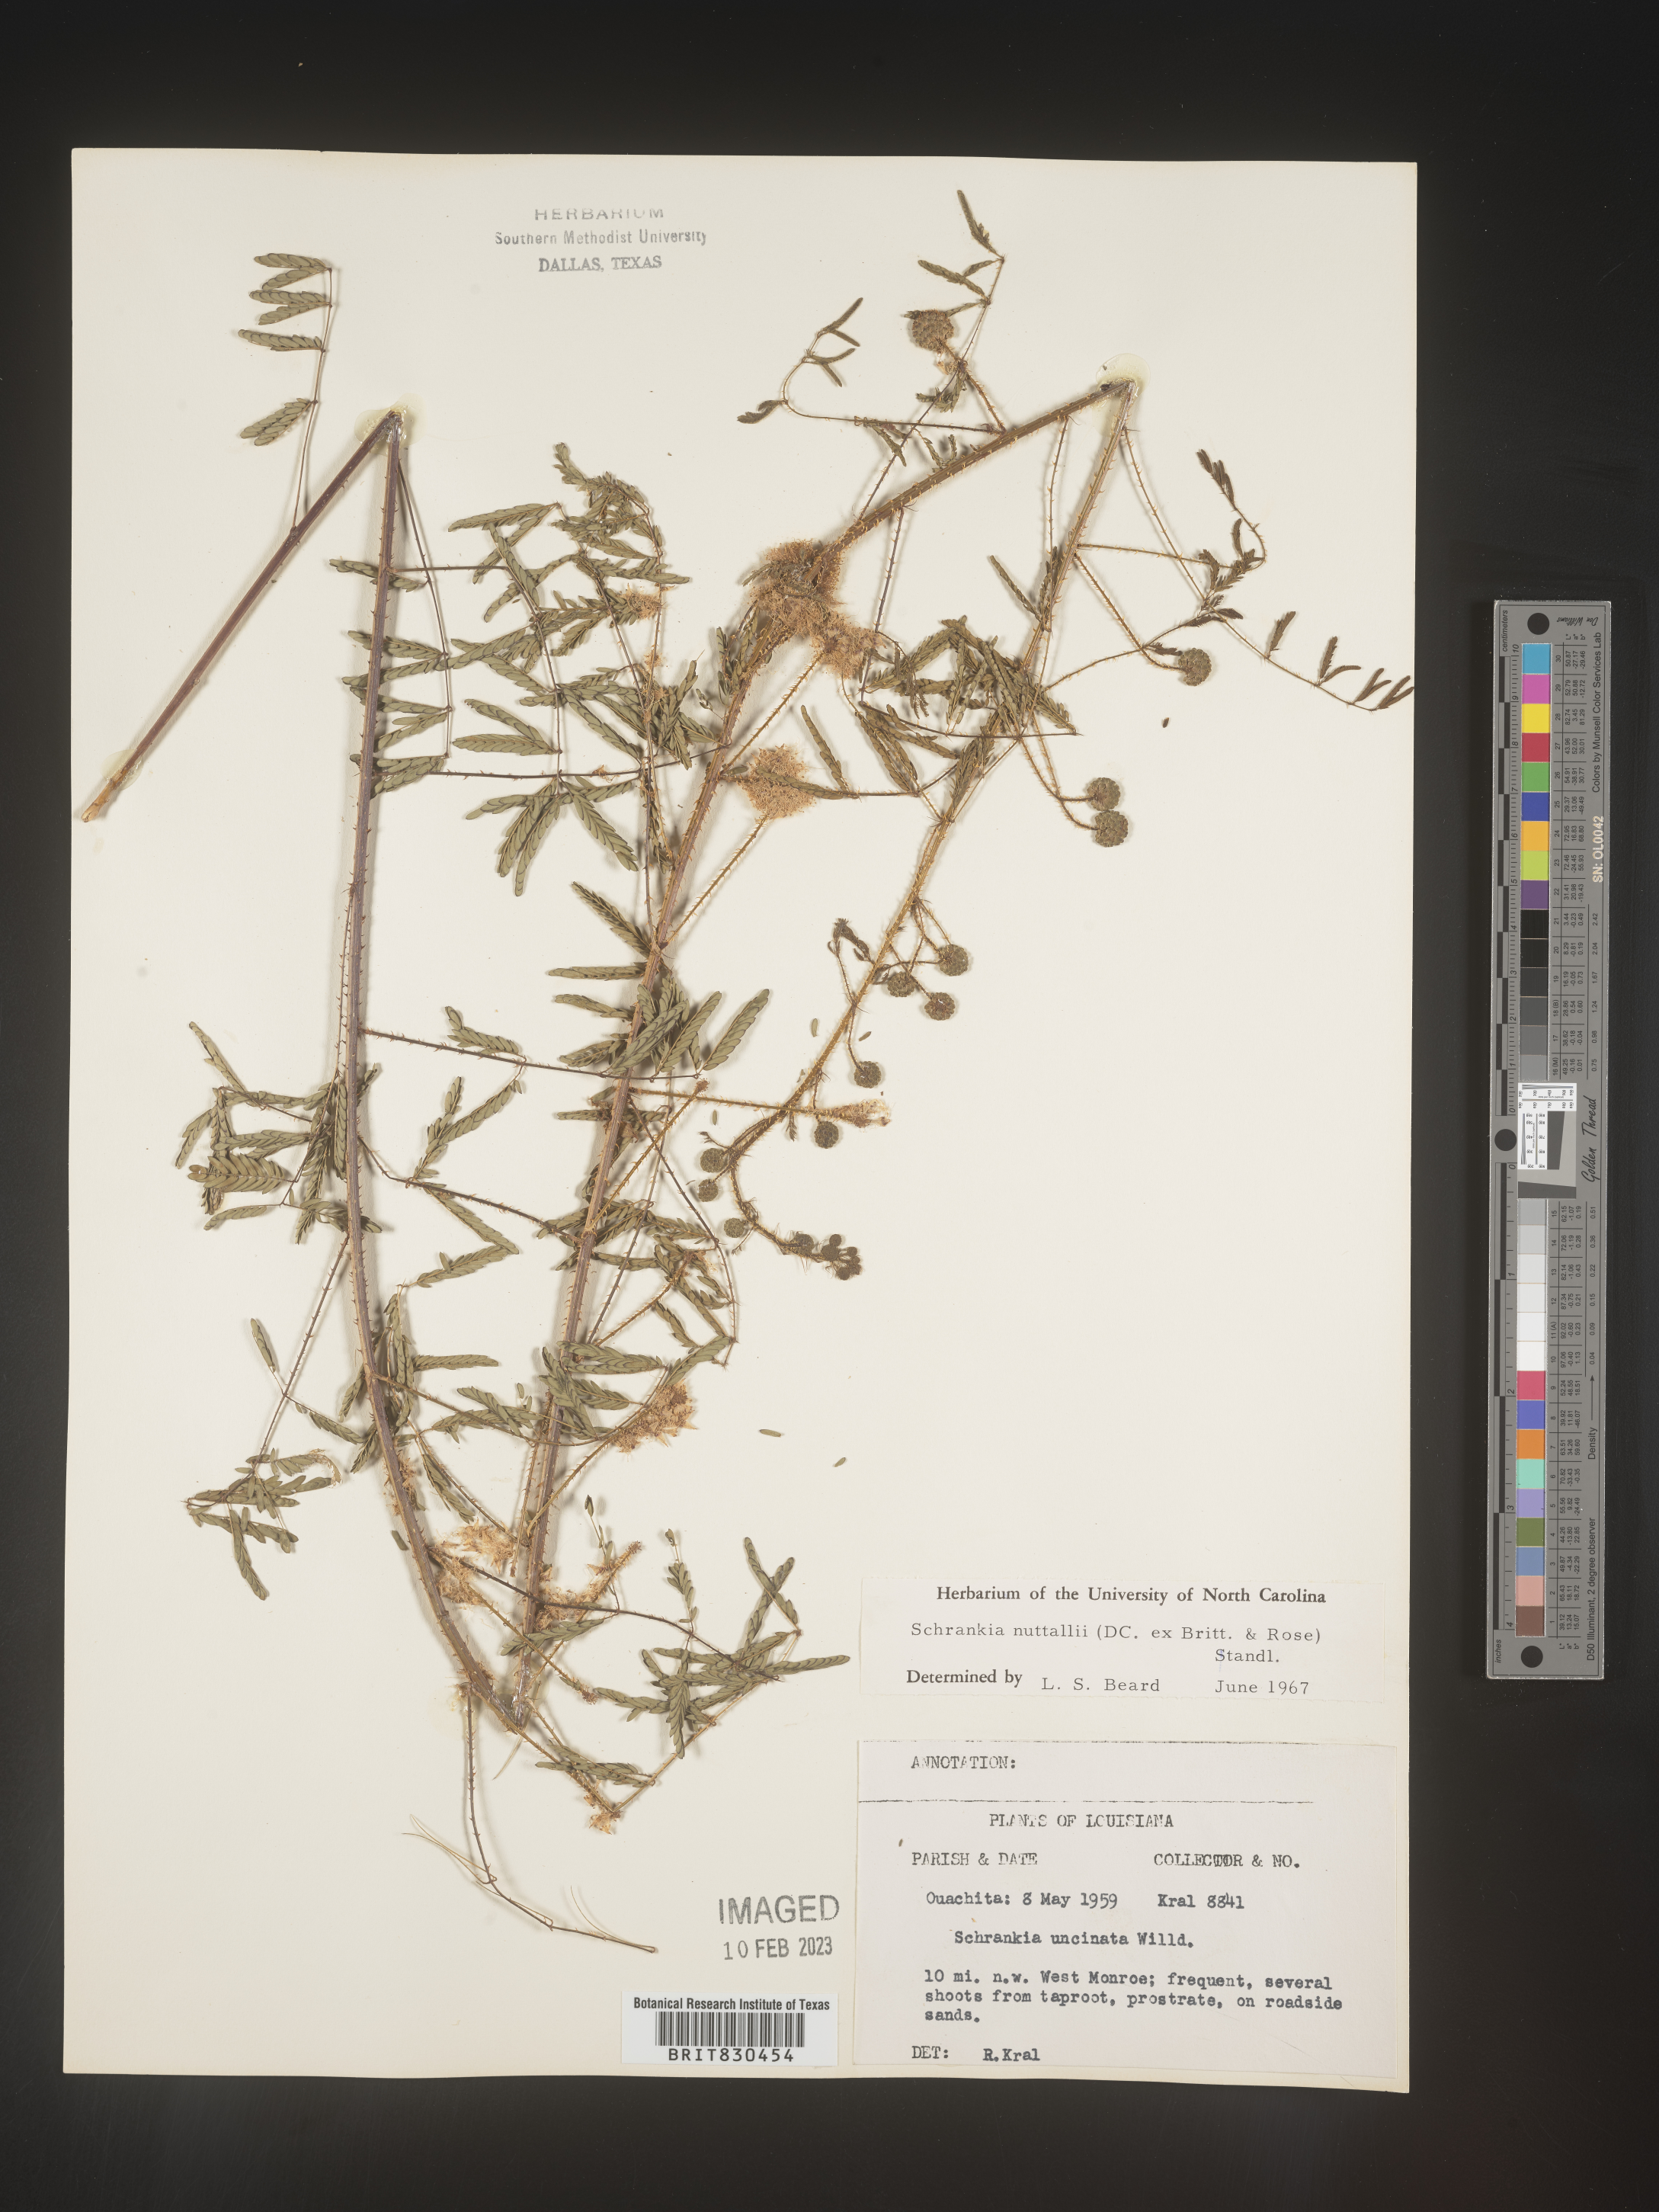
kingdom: Plantae
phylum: Tracheophyta
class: Magnoliopsida
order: Fabales
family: Fabaceae
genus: Mimosa
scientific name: Mimosa quadrivalvis
